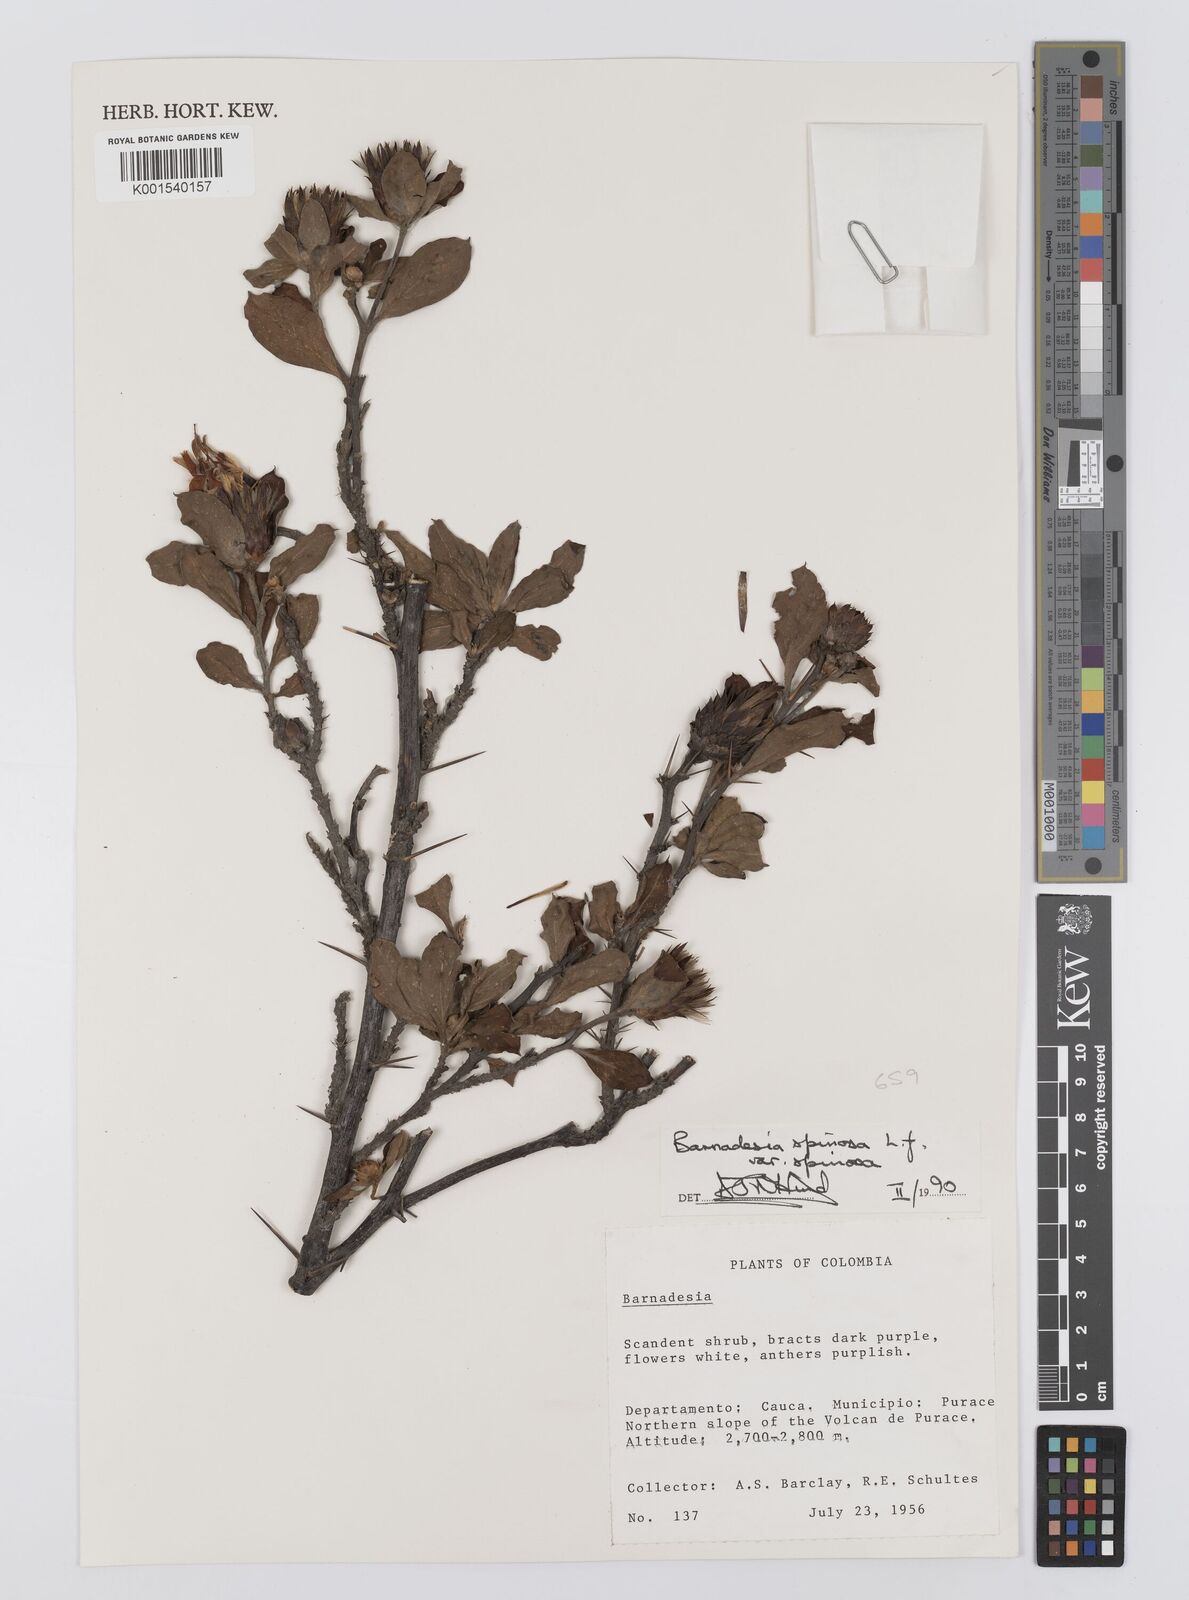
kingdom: Plantae
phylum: Tracheophyta
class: Magnoliopsida
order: Asterales
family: Asteraceae
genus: Barnadesia
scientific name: Barnadesia spinosa
